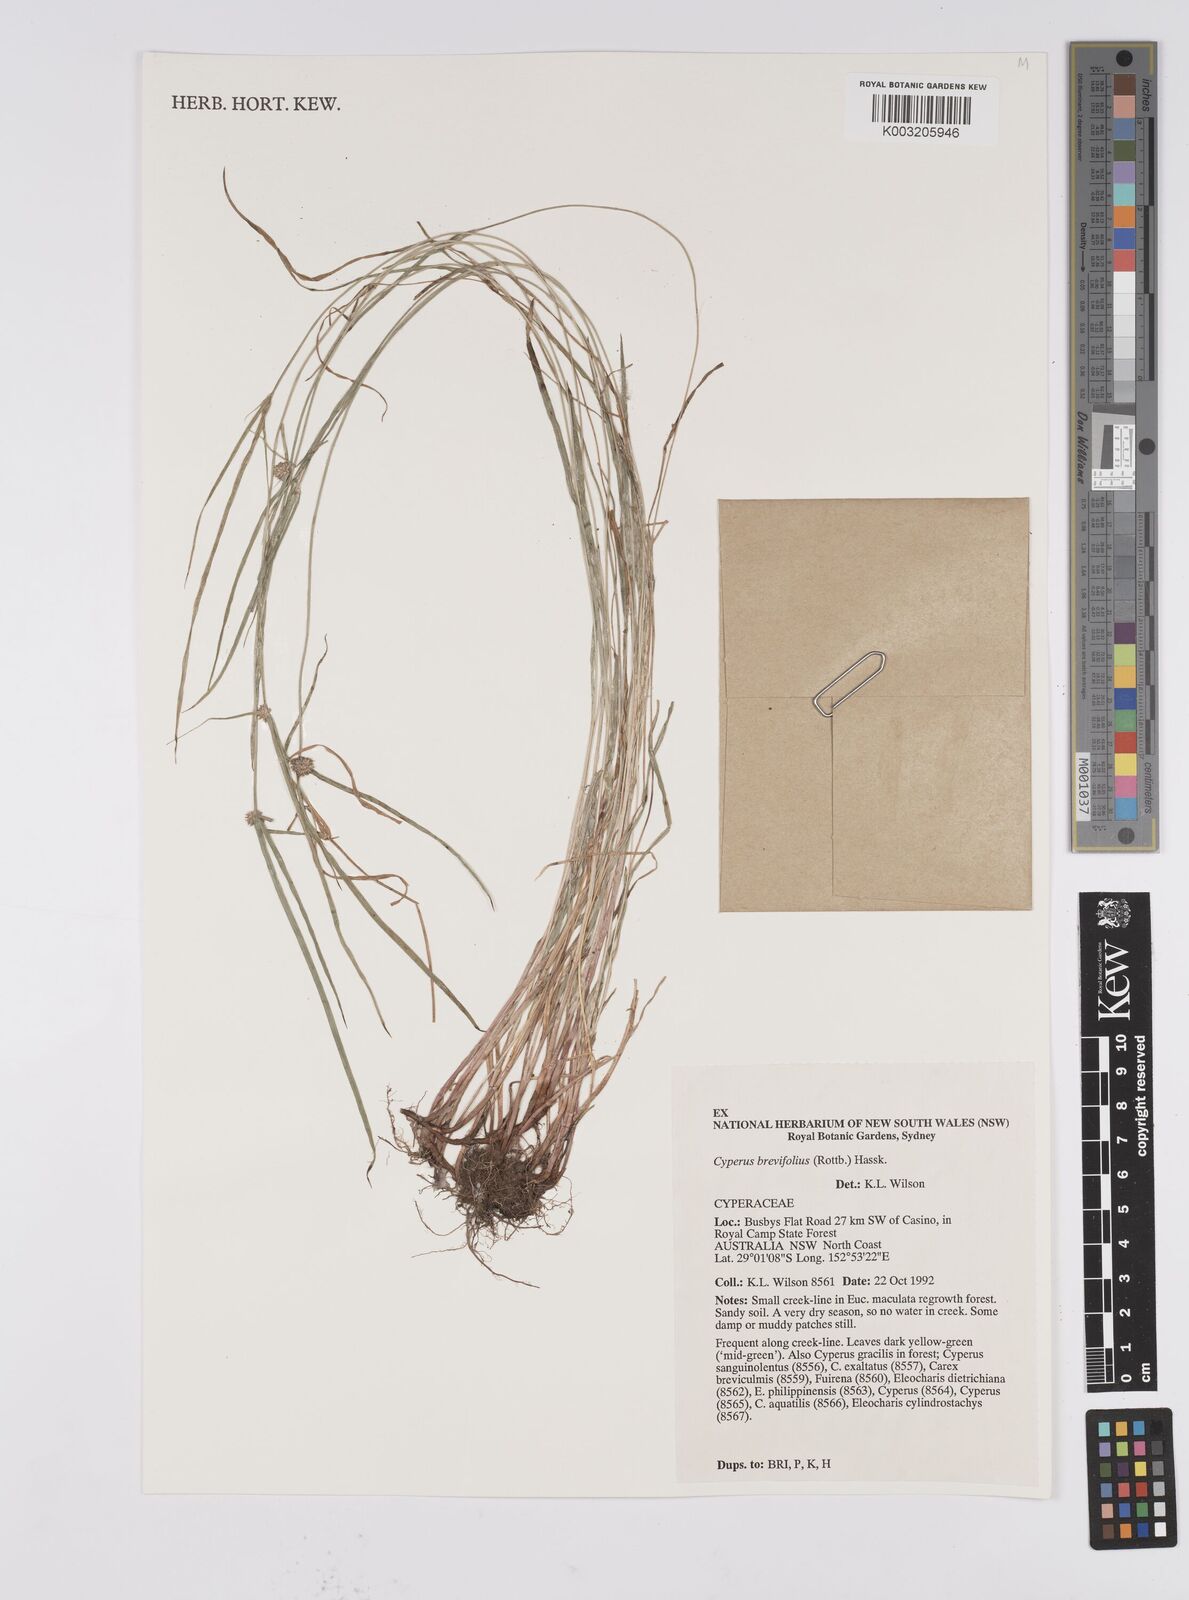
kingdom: Plantae
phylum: Tracheophyta
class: Liliopsida
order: Poales
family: Cyperaceae
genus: Cyperus
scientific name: Cyperus brevifolius
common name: Globe kyllinga
